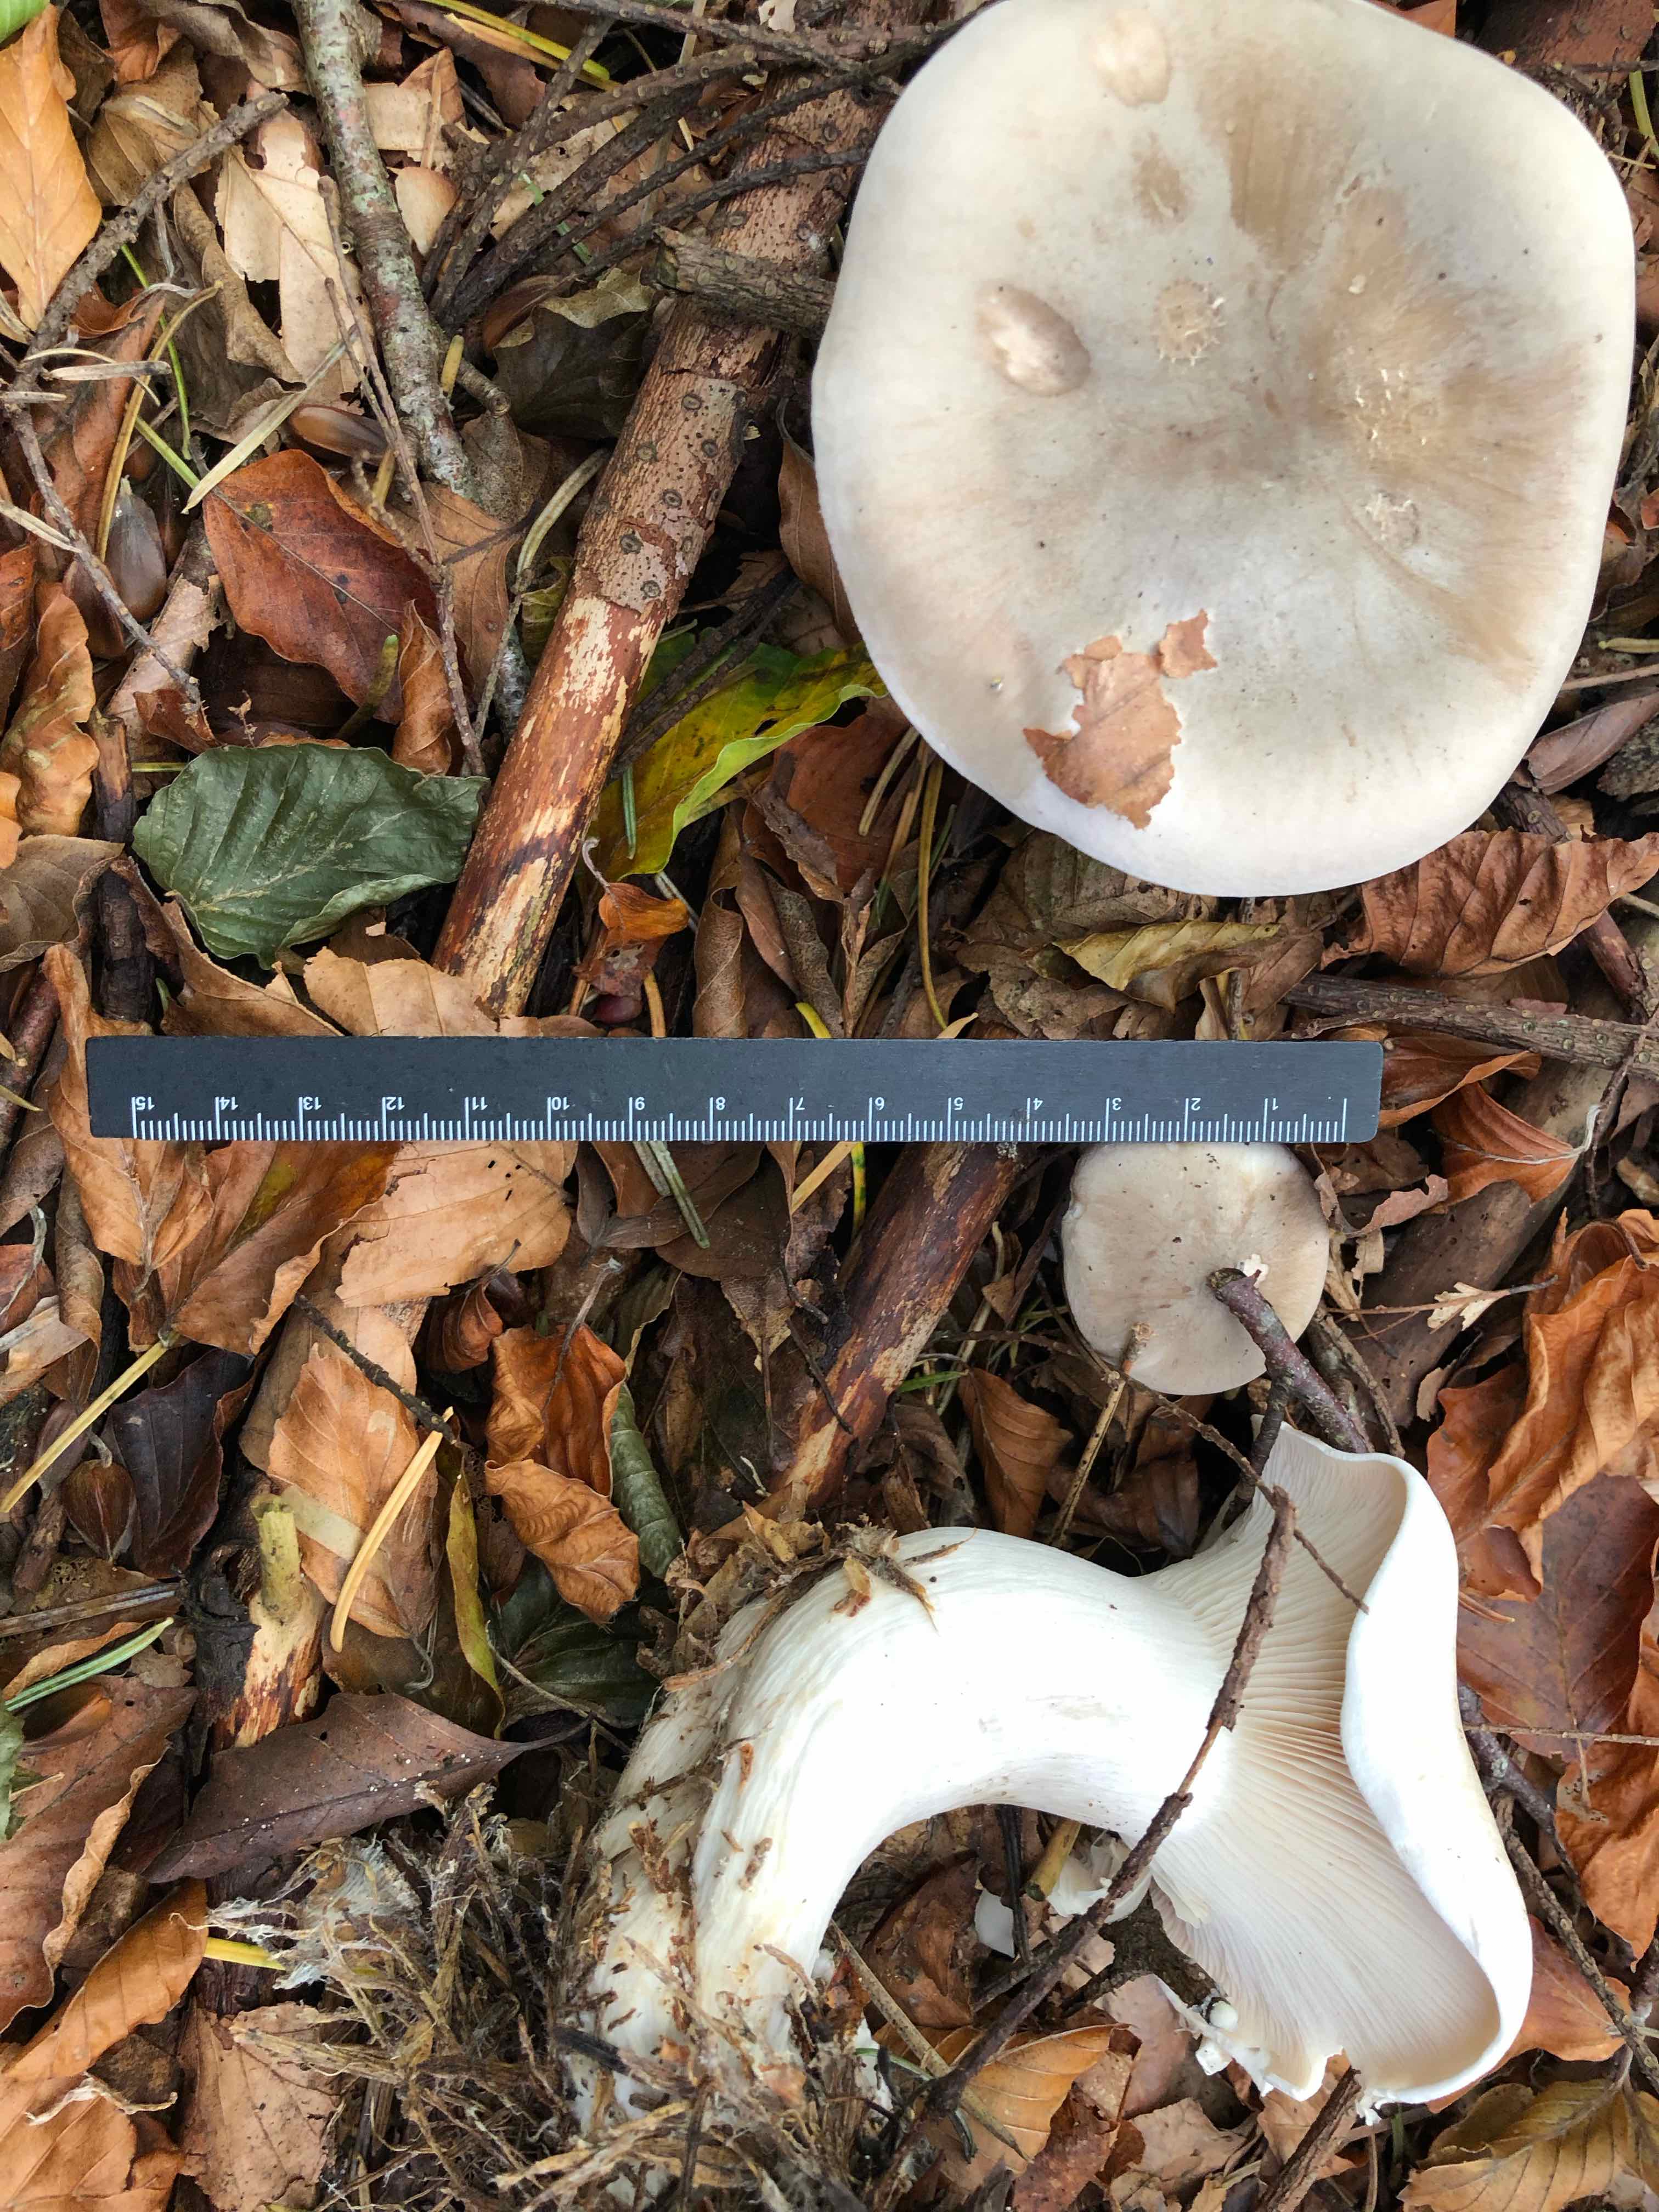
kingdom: Fungi
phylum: Basidiomycota
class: Agaricomycetes
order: Agaricales
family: Tricholomataceae
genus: Clitocybe
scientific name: Clitocybe nebularis
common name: tåge-tragthat
